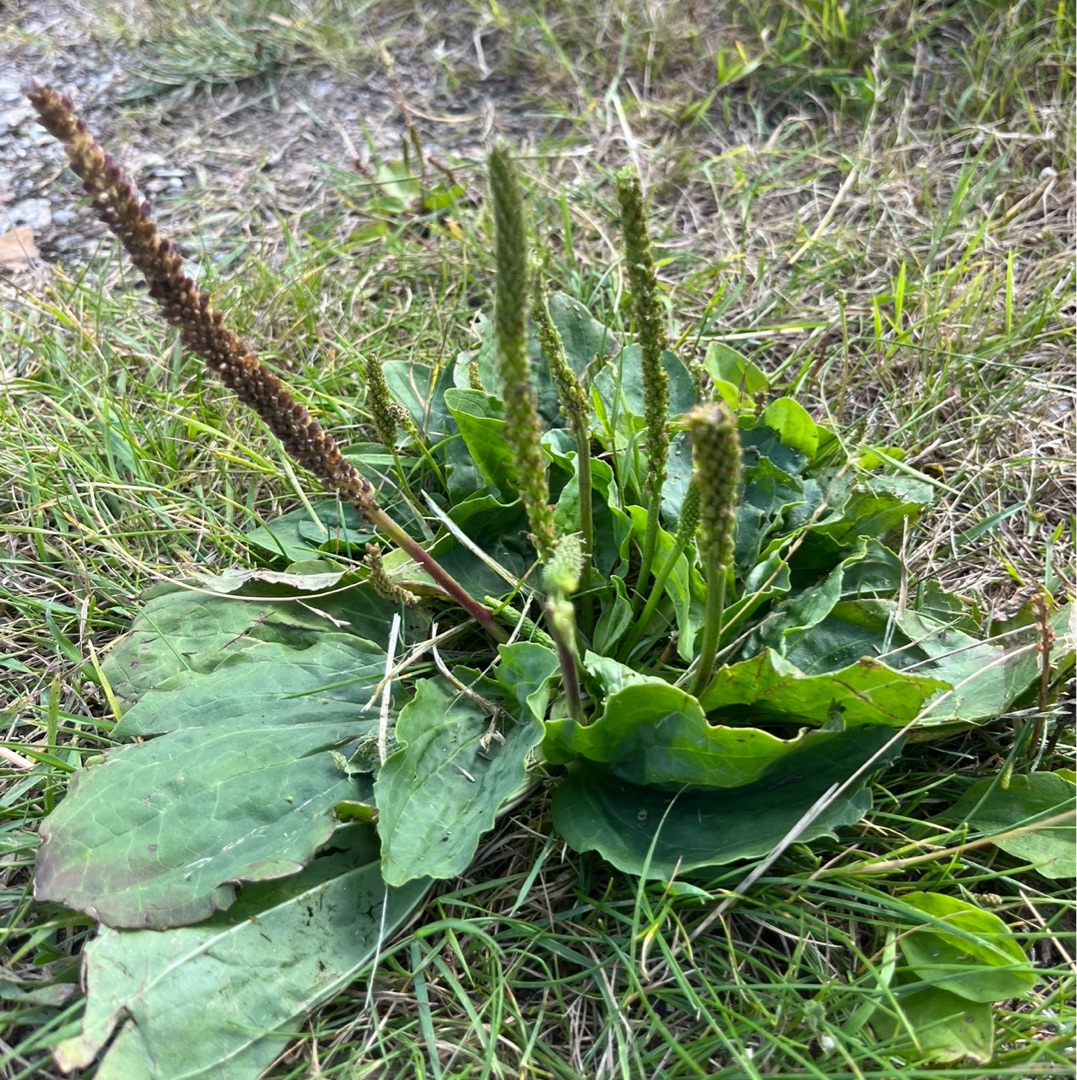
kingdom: Plantae
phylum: Tracheophyta
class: Magnoliopsida
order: Lamiales
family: Plantaginaceae
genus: Plantago
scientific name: Plantago major
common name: Glat vejbred
